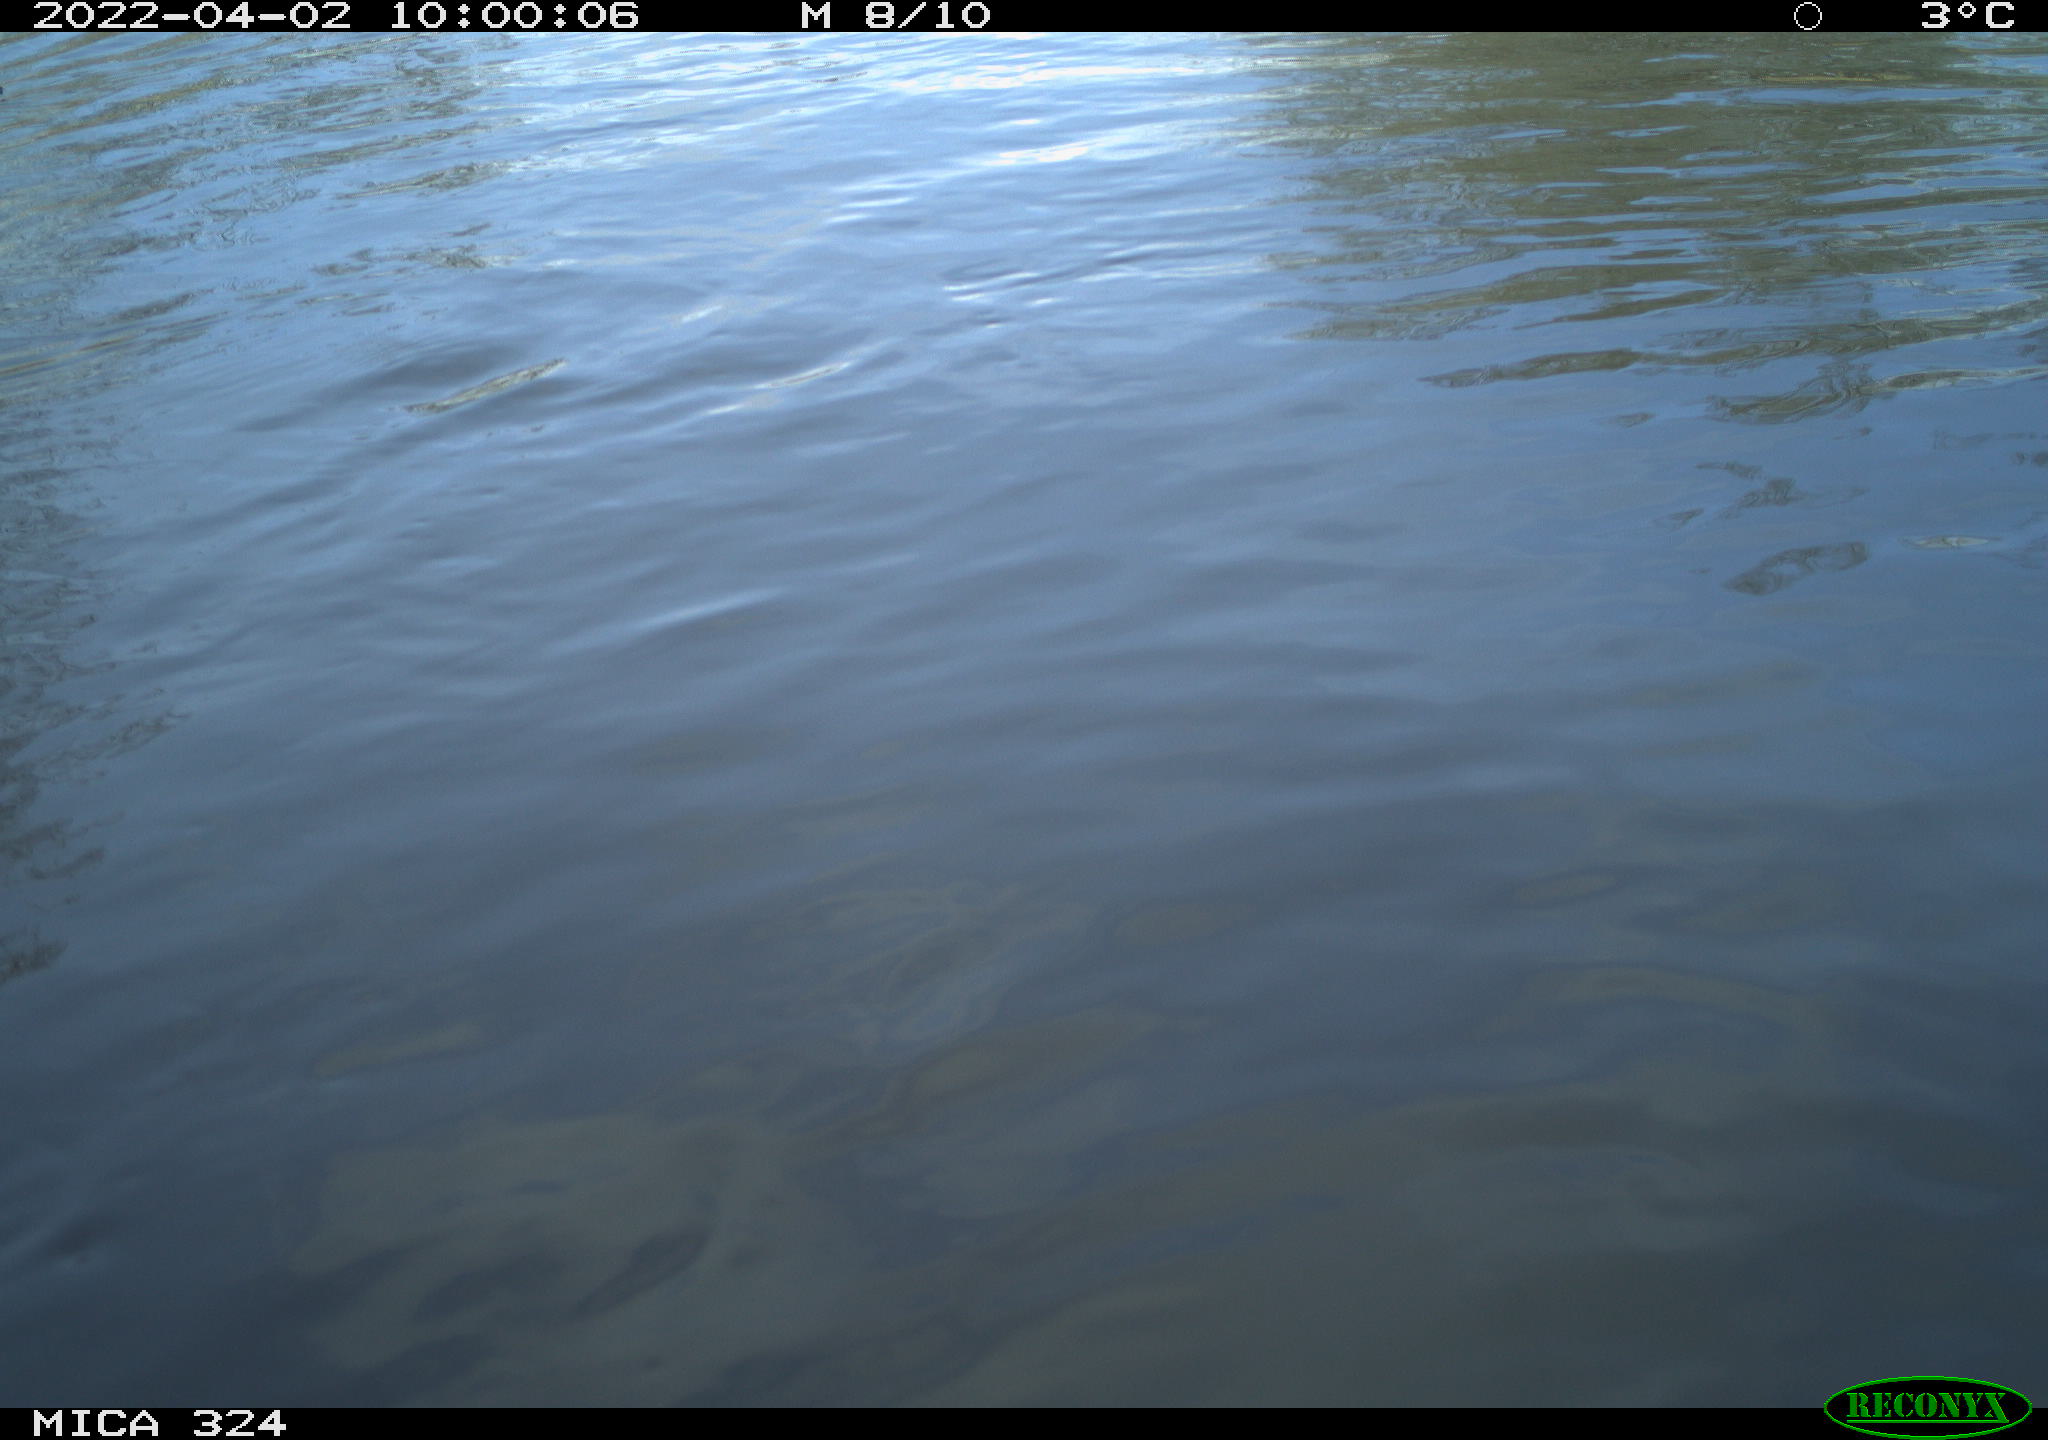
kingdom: Animalia
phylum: Chordata
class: Mammalia
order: Rodentia
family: Cricetidae
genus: Ondatra
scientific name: Ondatra zibethicus
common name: Muskrat
